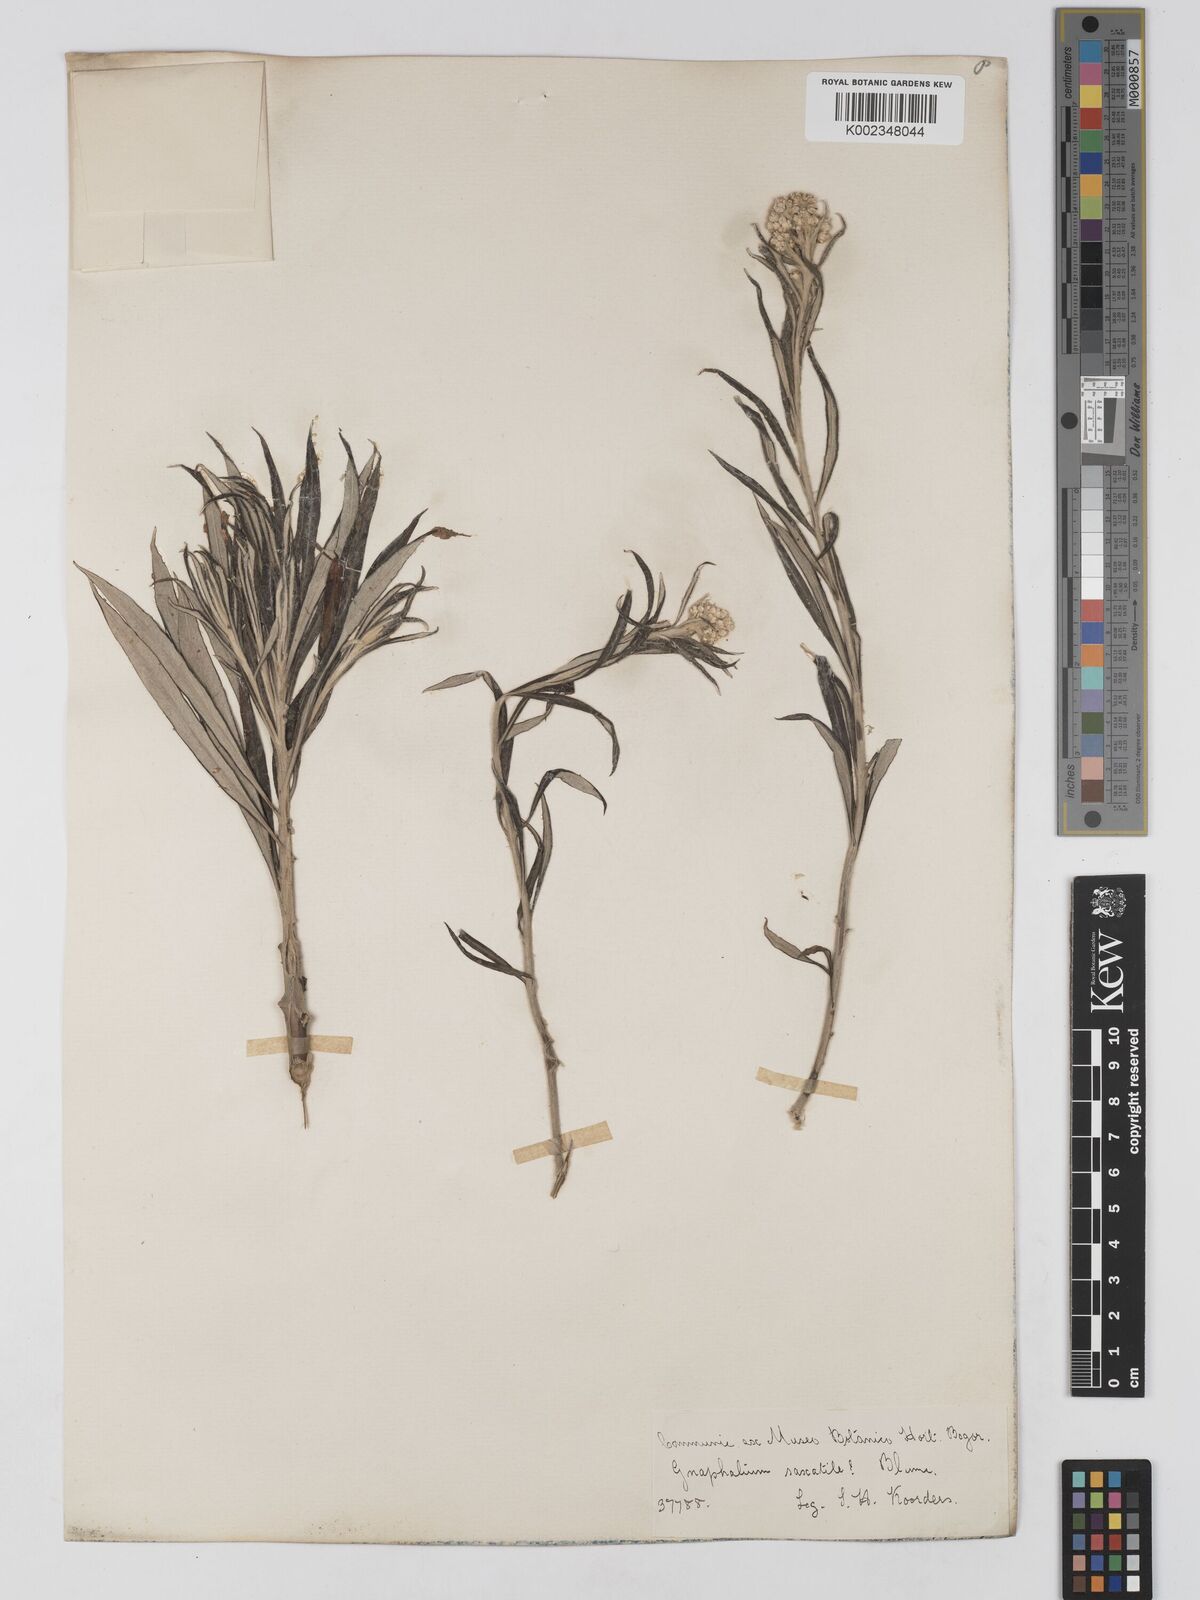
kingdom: Plantae
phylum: Tracheophyta
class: Magnoliopsida
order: Asterales
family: Asteraceae
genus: Anaphalis
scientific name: Anaphalis longifolia
